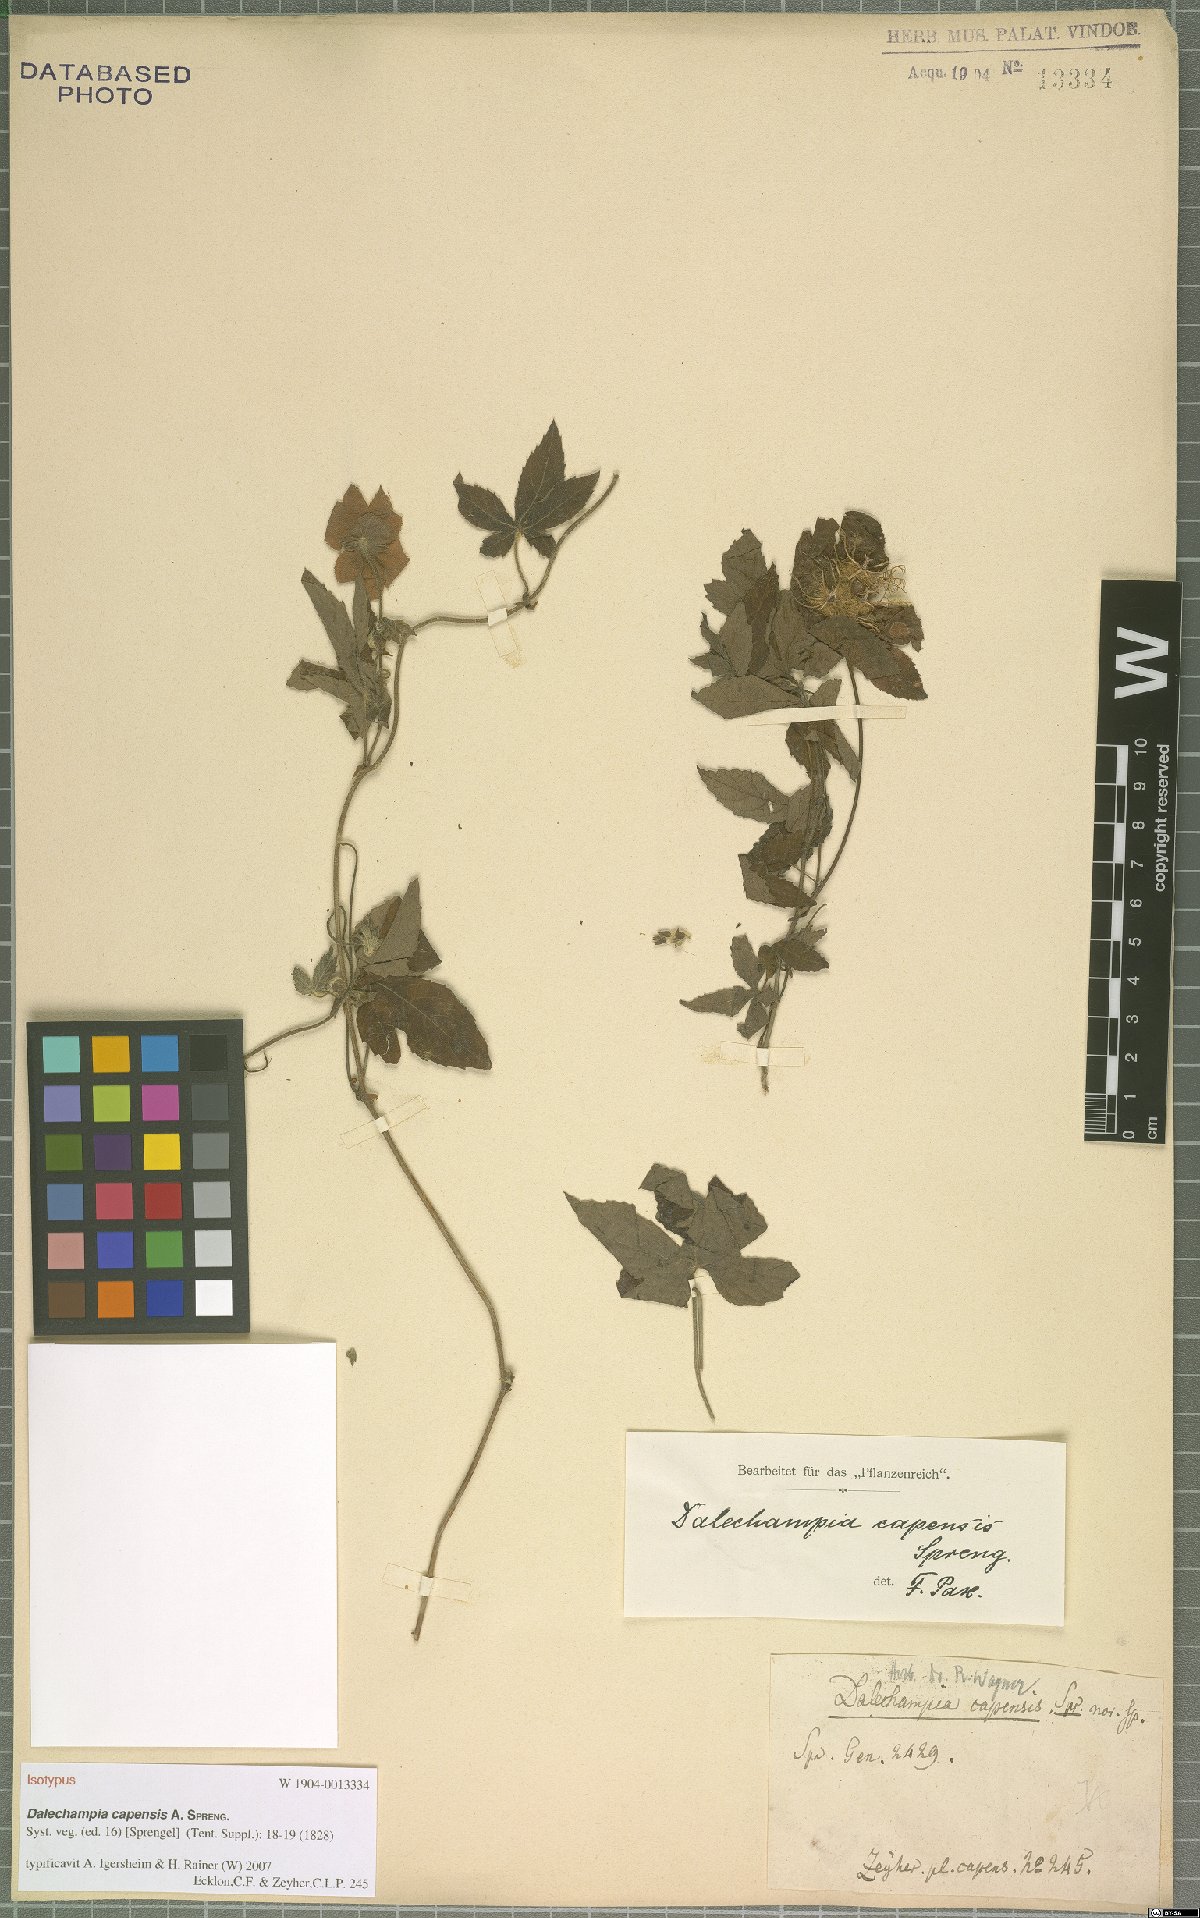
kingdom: Plantae
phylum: Tracheophyta
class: Magnoliopsida
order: Malpighiales
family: Euphorbiaceae
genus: Dalechampia
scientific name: Dalechampia capensis
